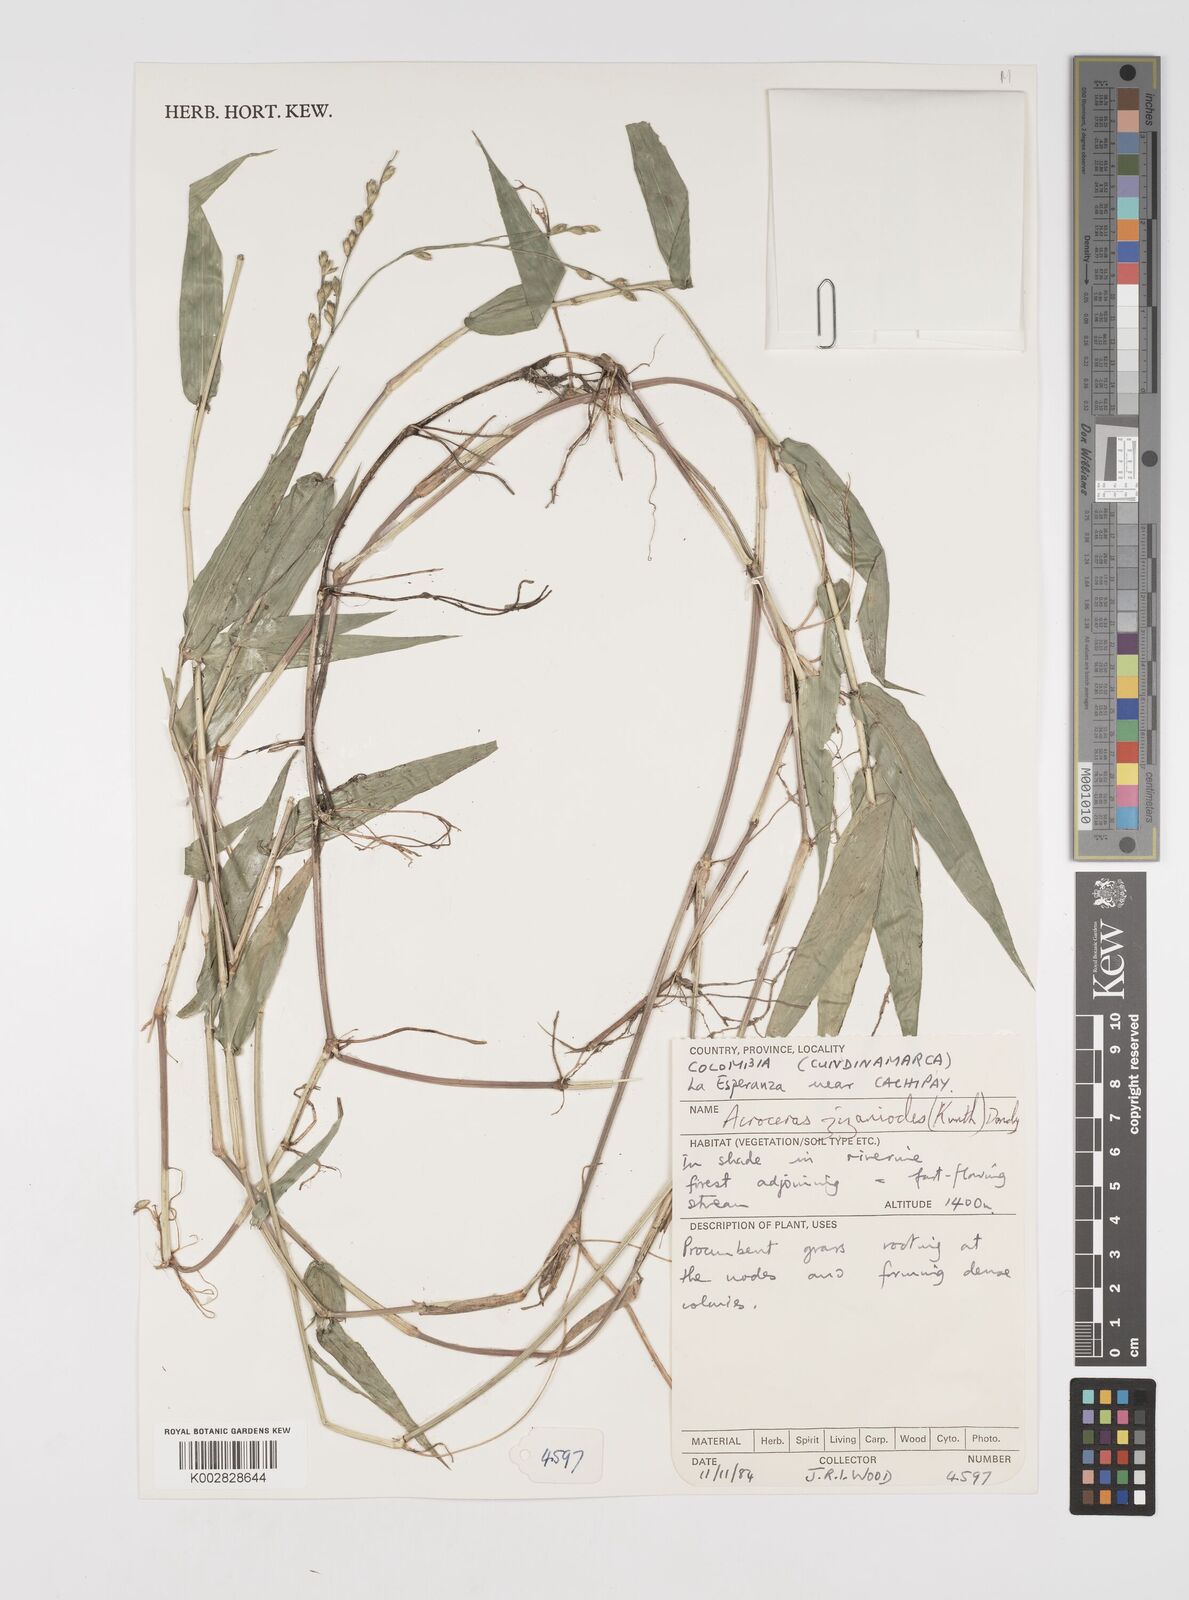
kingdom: Plantae
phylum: Tracheophyta
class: Liliopsida
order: Poales
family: Poaceae
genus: Acroceras
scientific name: Acroceras zizanioides
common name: Oat grass
